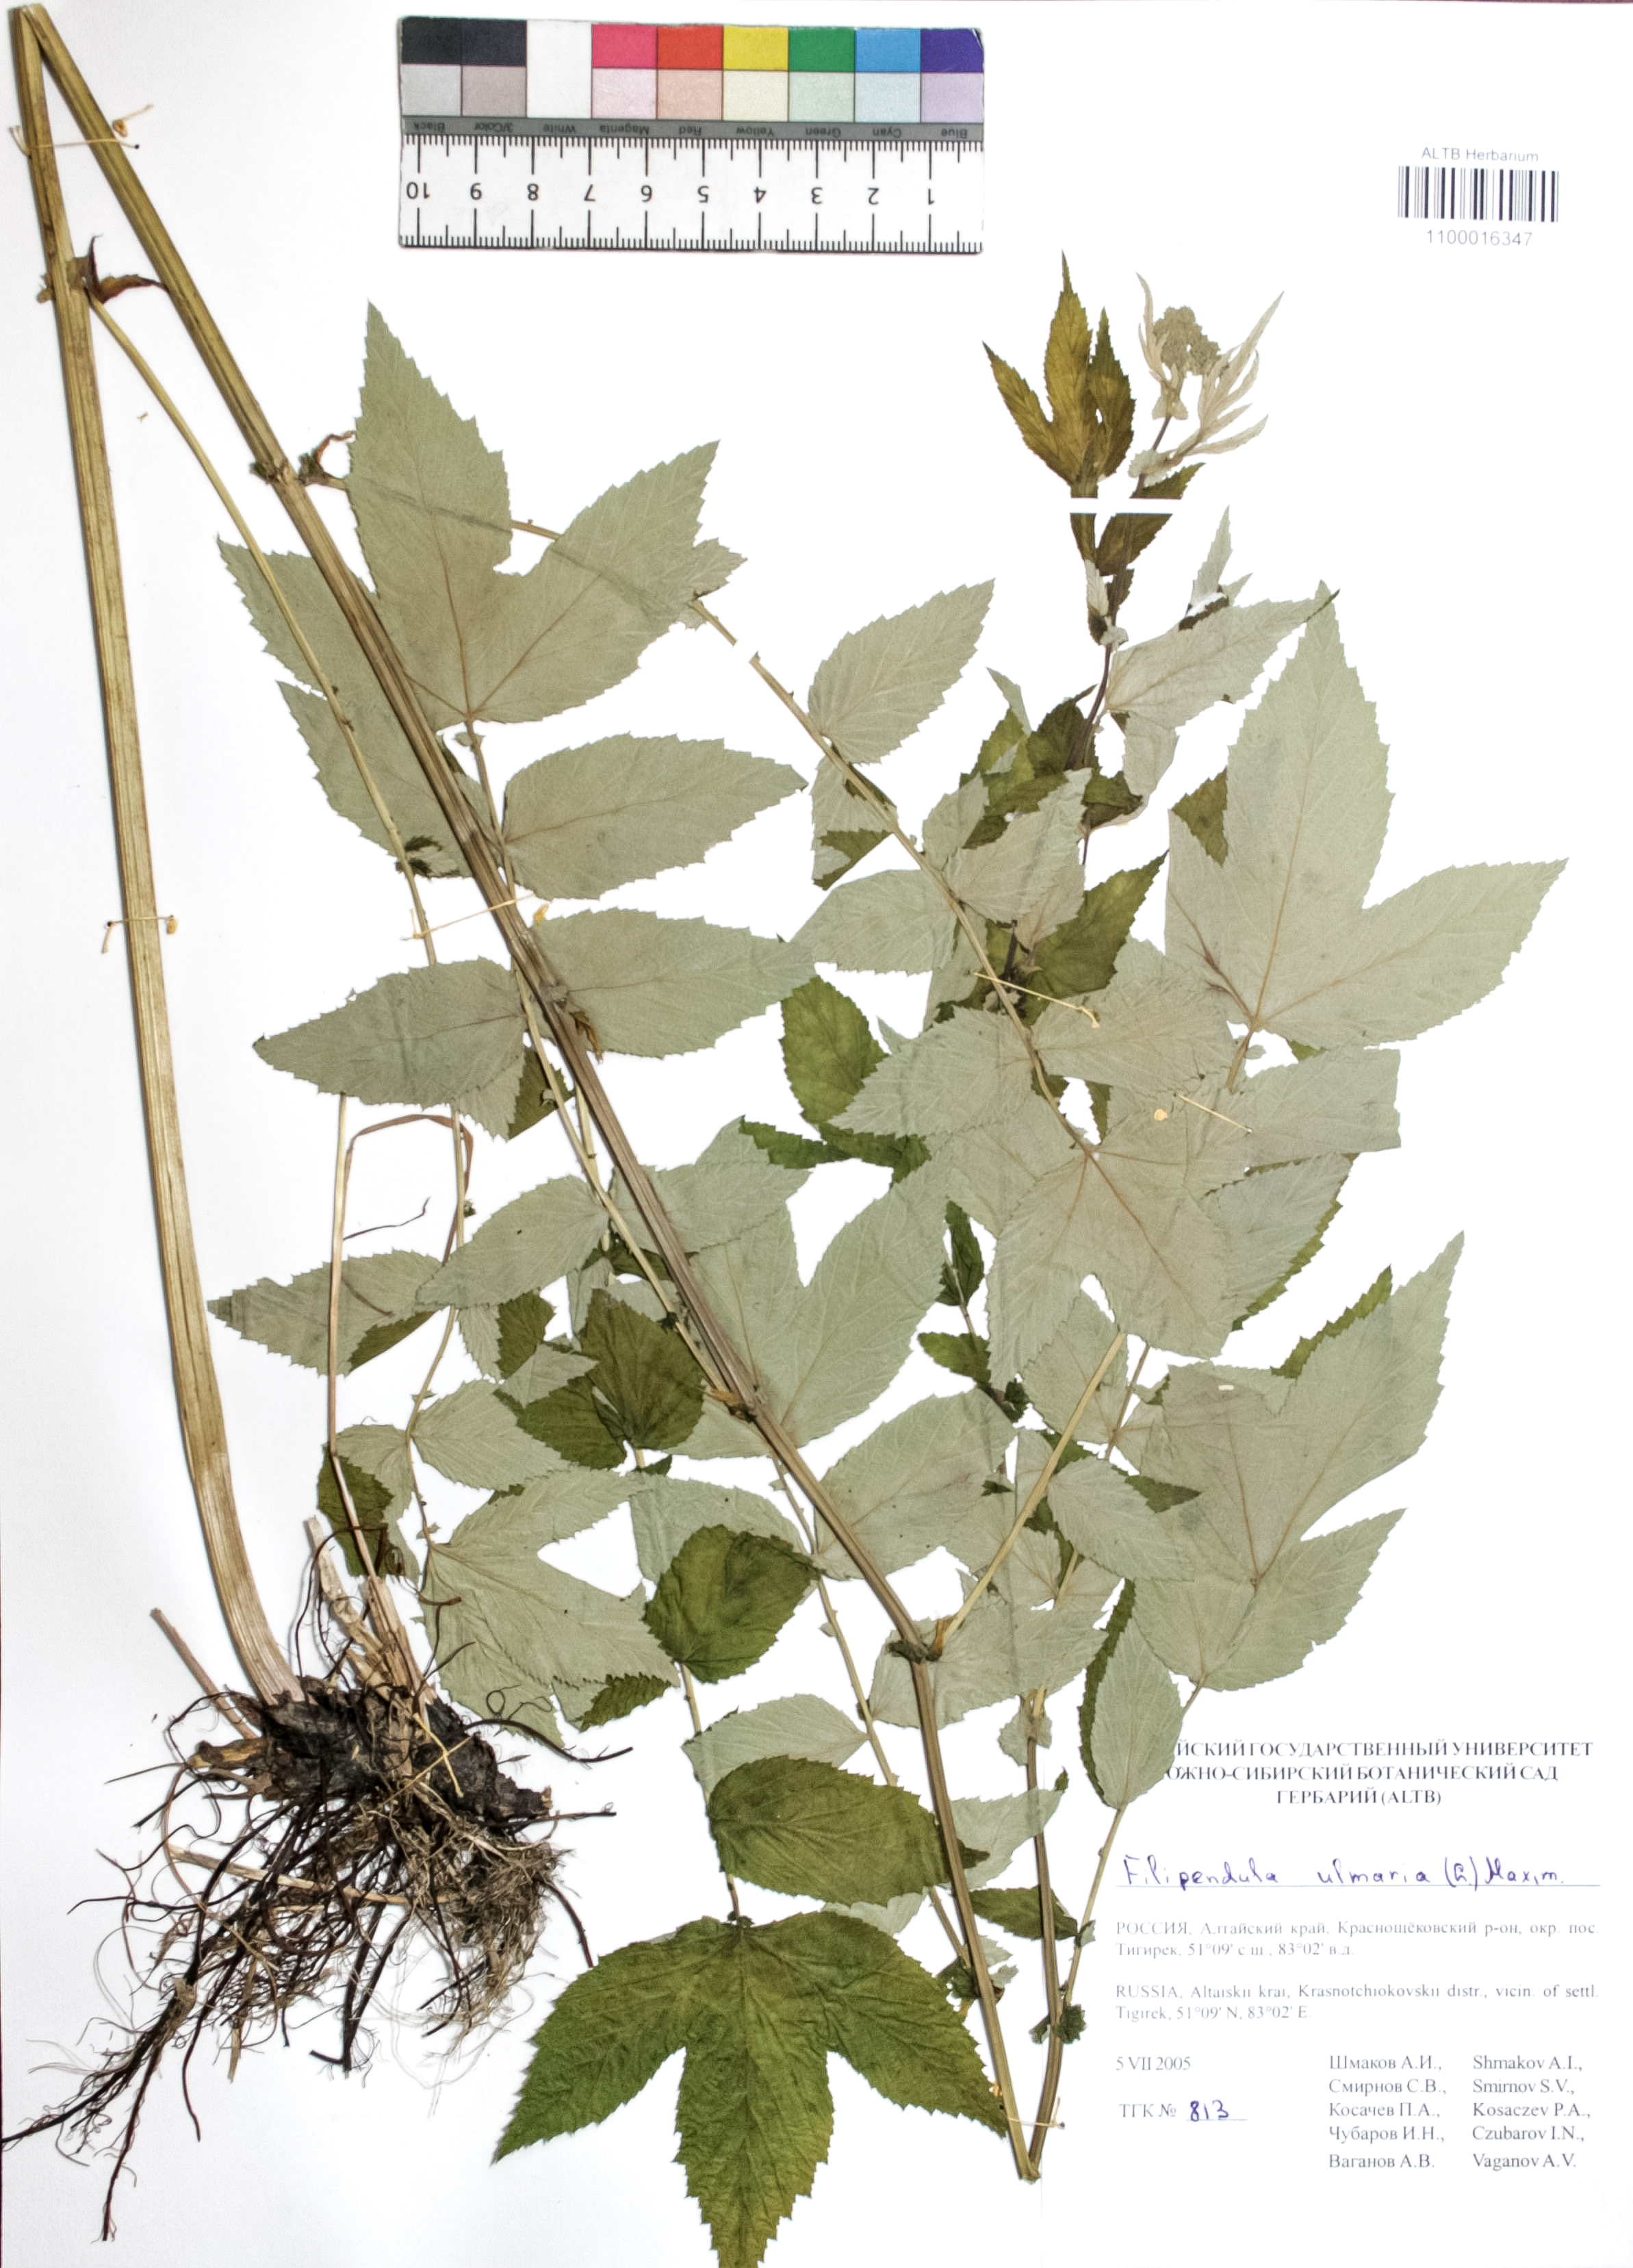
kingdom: Plantae
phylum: Tracheophyta
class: Magnoliopsida
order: Rosales
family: Rosaceae
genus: Filipendula
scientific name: Filipendula ulmaria
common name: Meadowsweet
